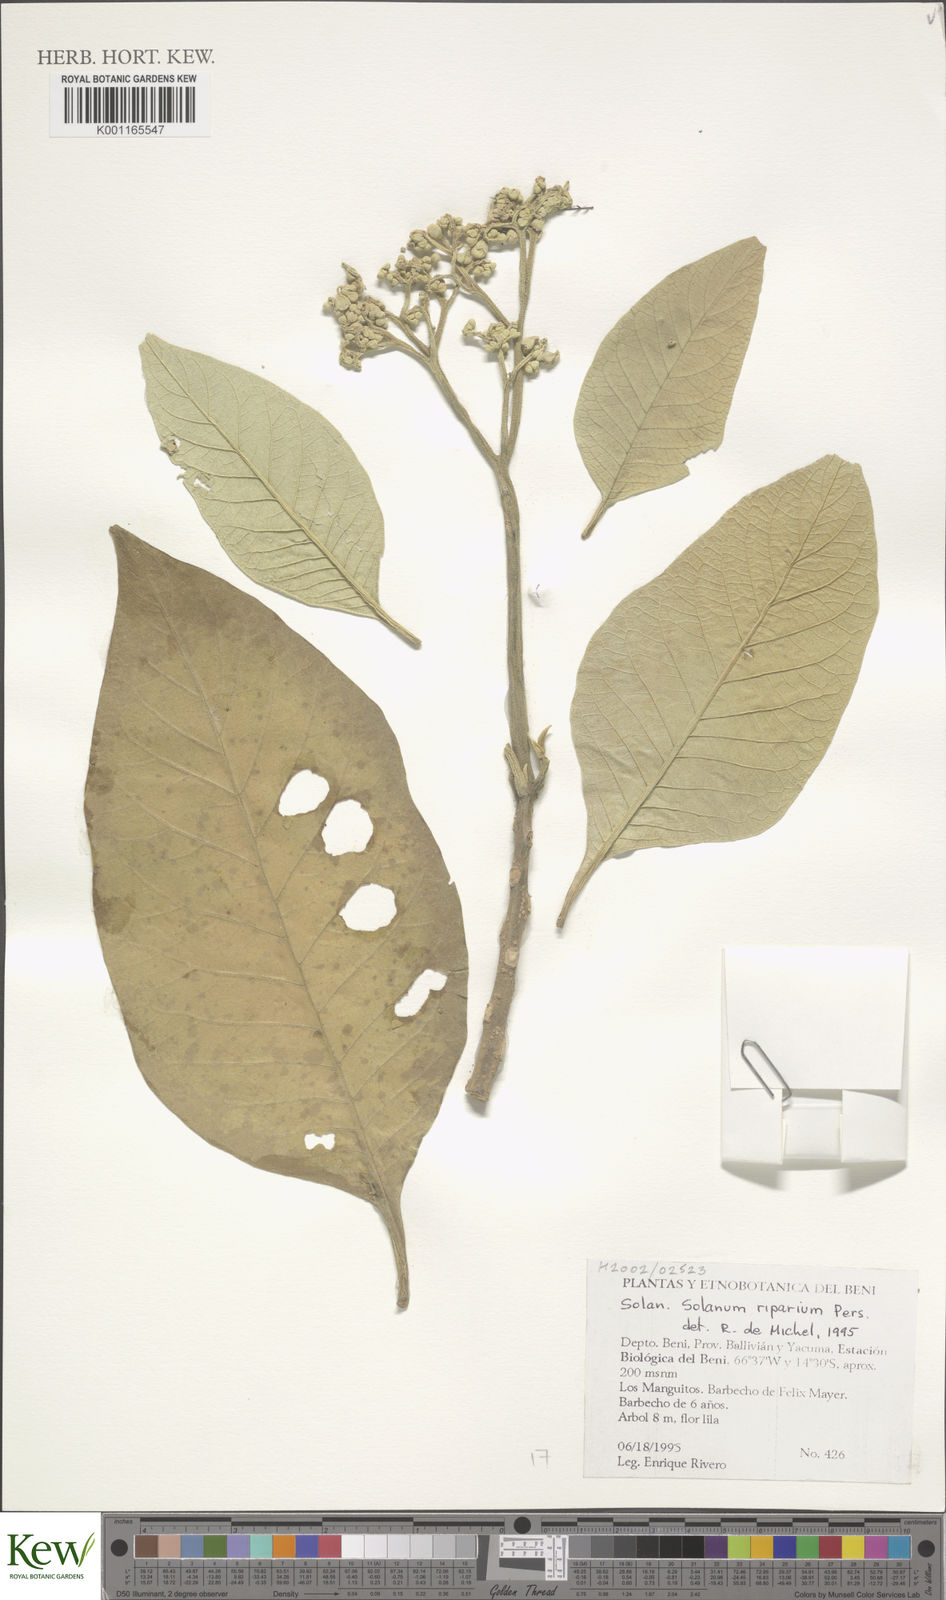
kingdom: Plantae
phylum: Tracheophyta
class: Magnoliopsida
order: Solanales
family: Solanaceae
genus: Solanum
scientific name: Solanum riparium
